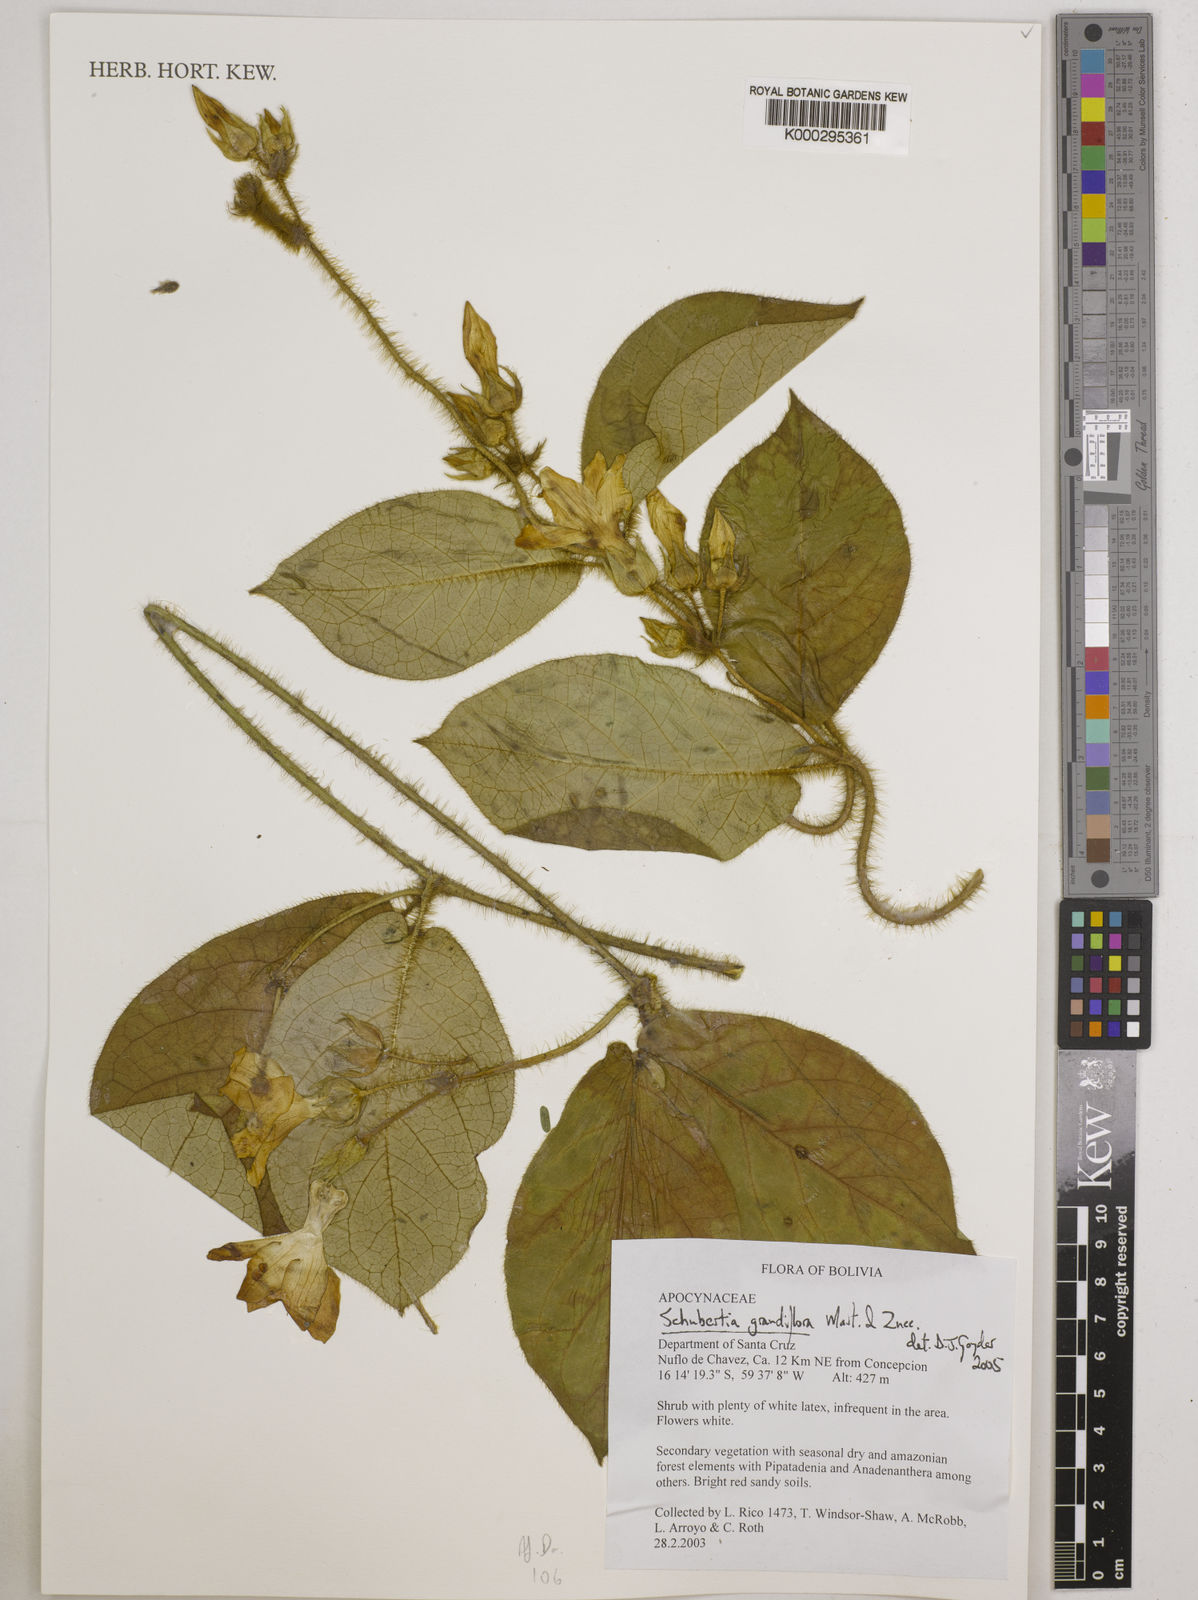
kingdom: Plantae
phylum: Tracheophyta
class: Magnoliopsida
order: Gentianales
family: Apocynaceae
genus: Macroscepis
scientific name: Macroscepis grandiflora
